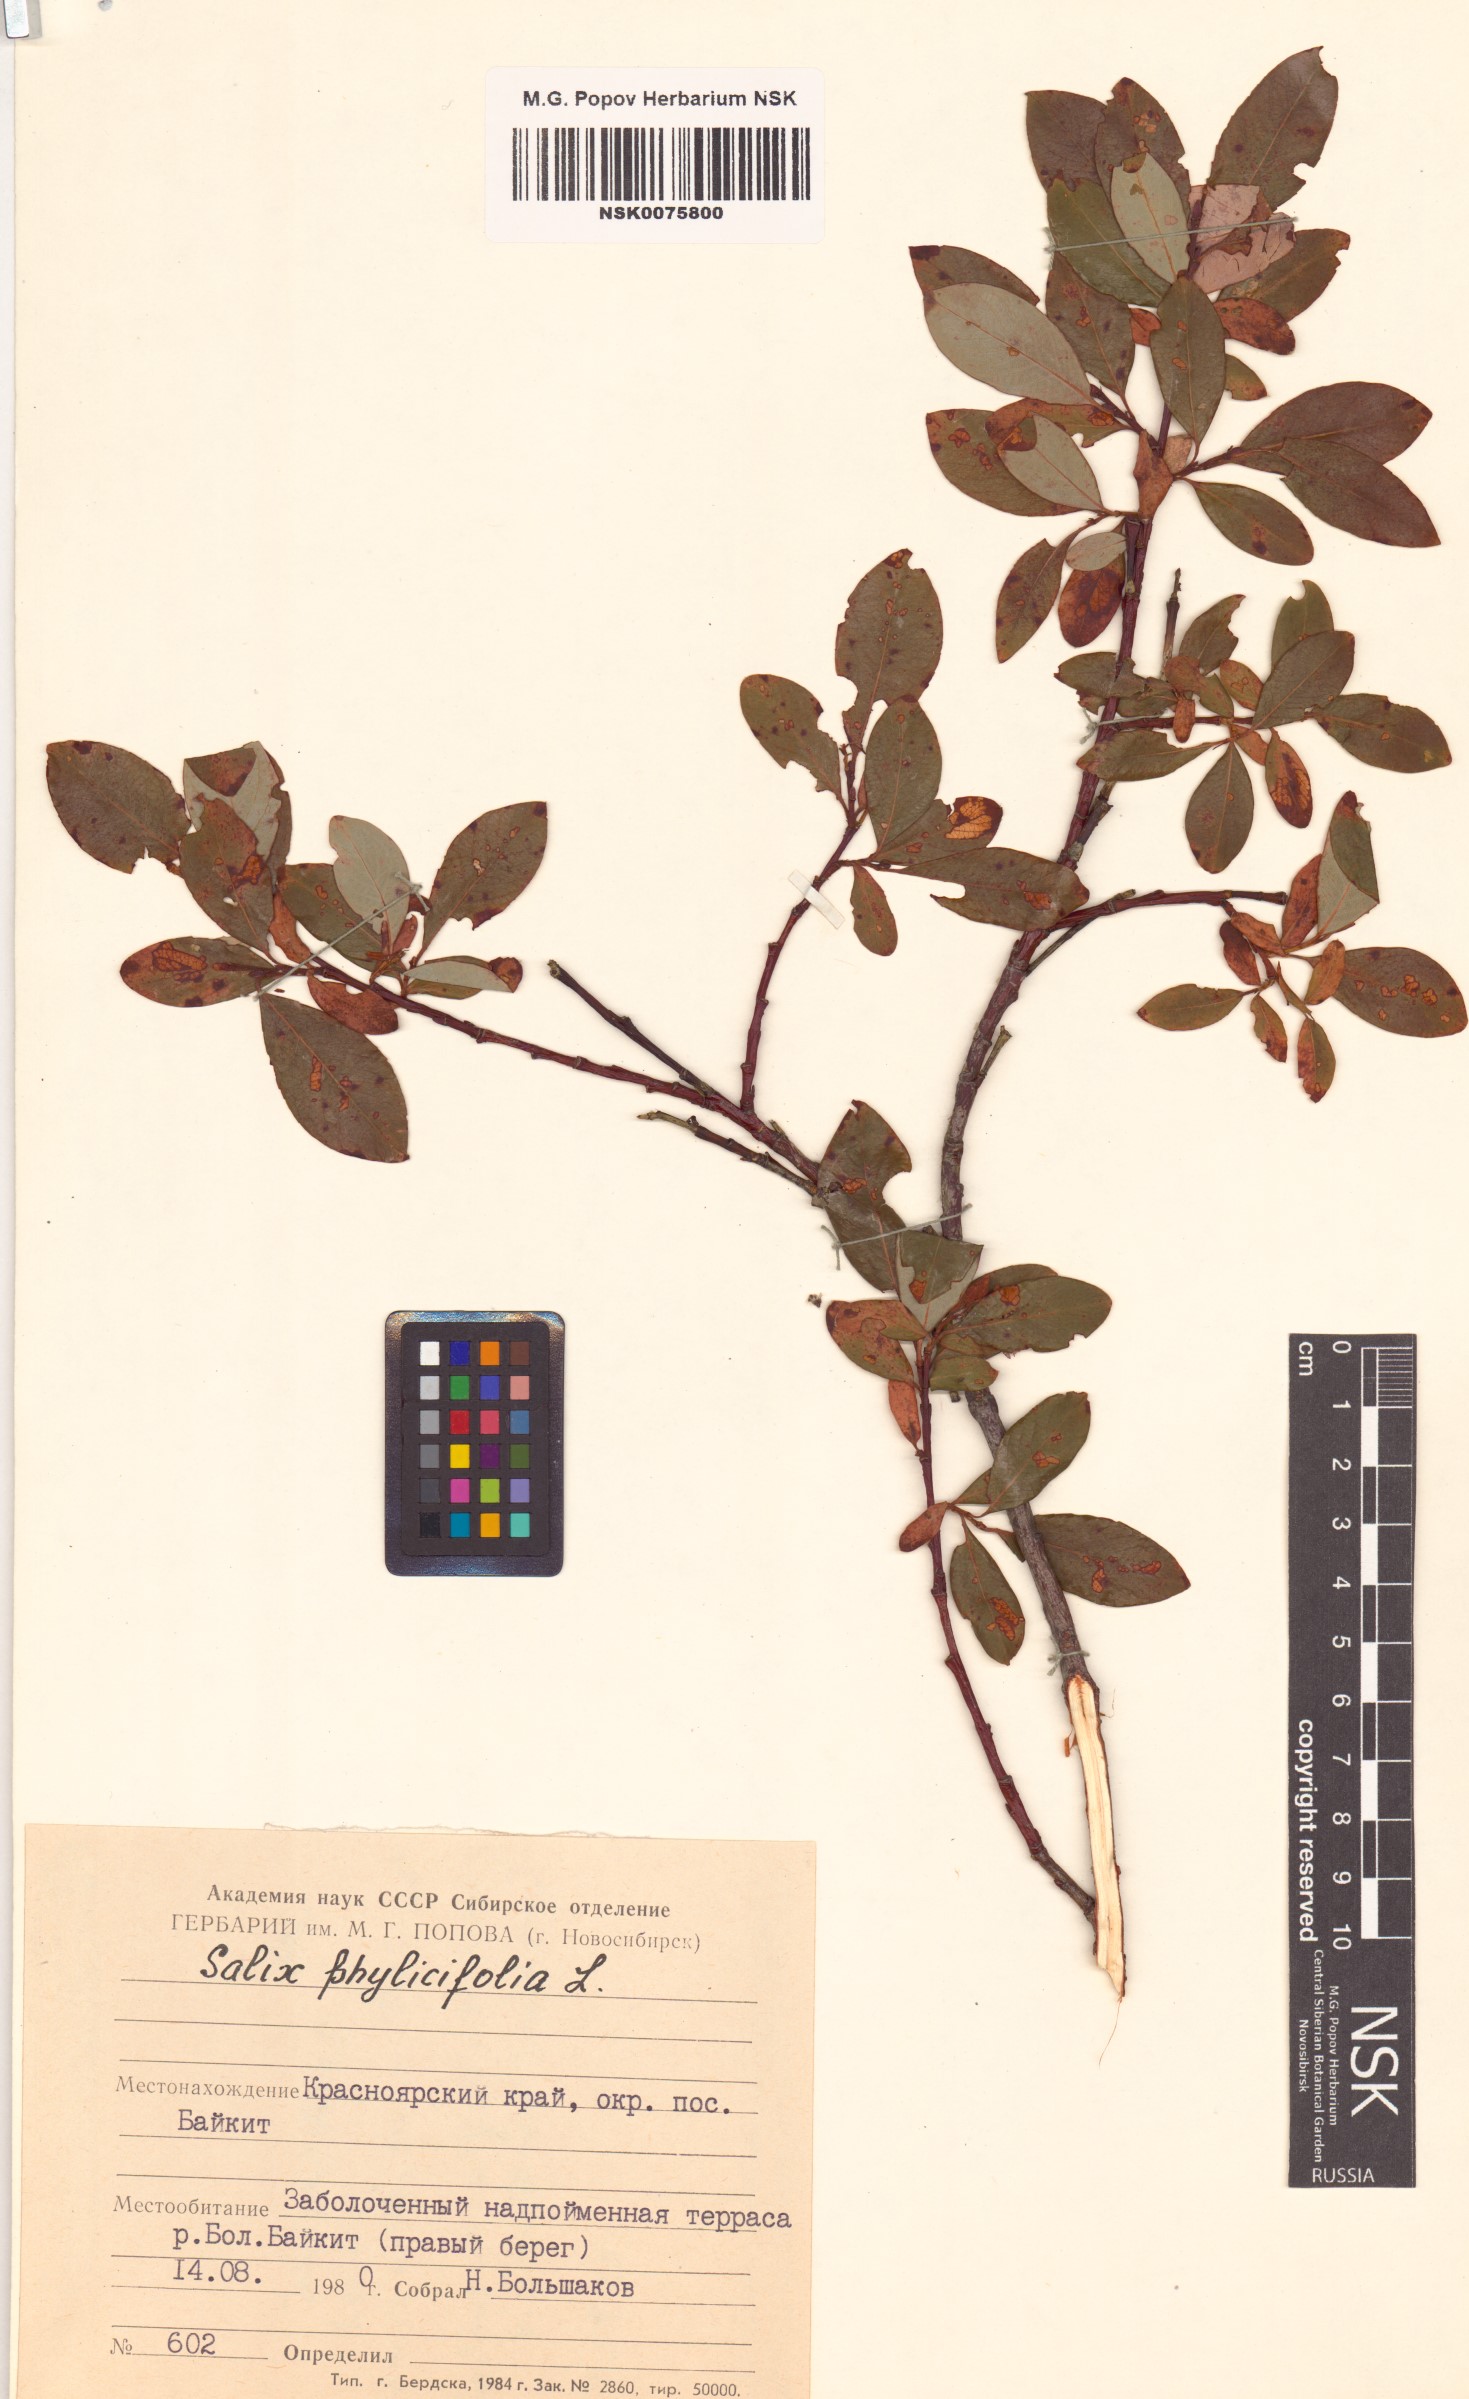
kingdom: Plantae
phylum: Tracheophyta
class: Magnoliopsida
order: Malpighiales
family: Salicaceae
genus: Salix
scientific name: Salix phylicifolia
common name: Tea-leaved willow
